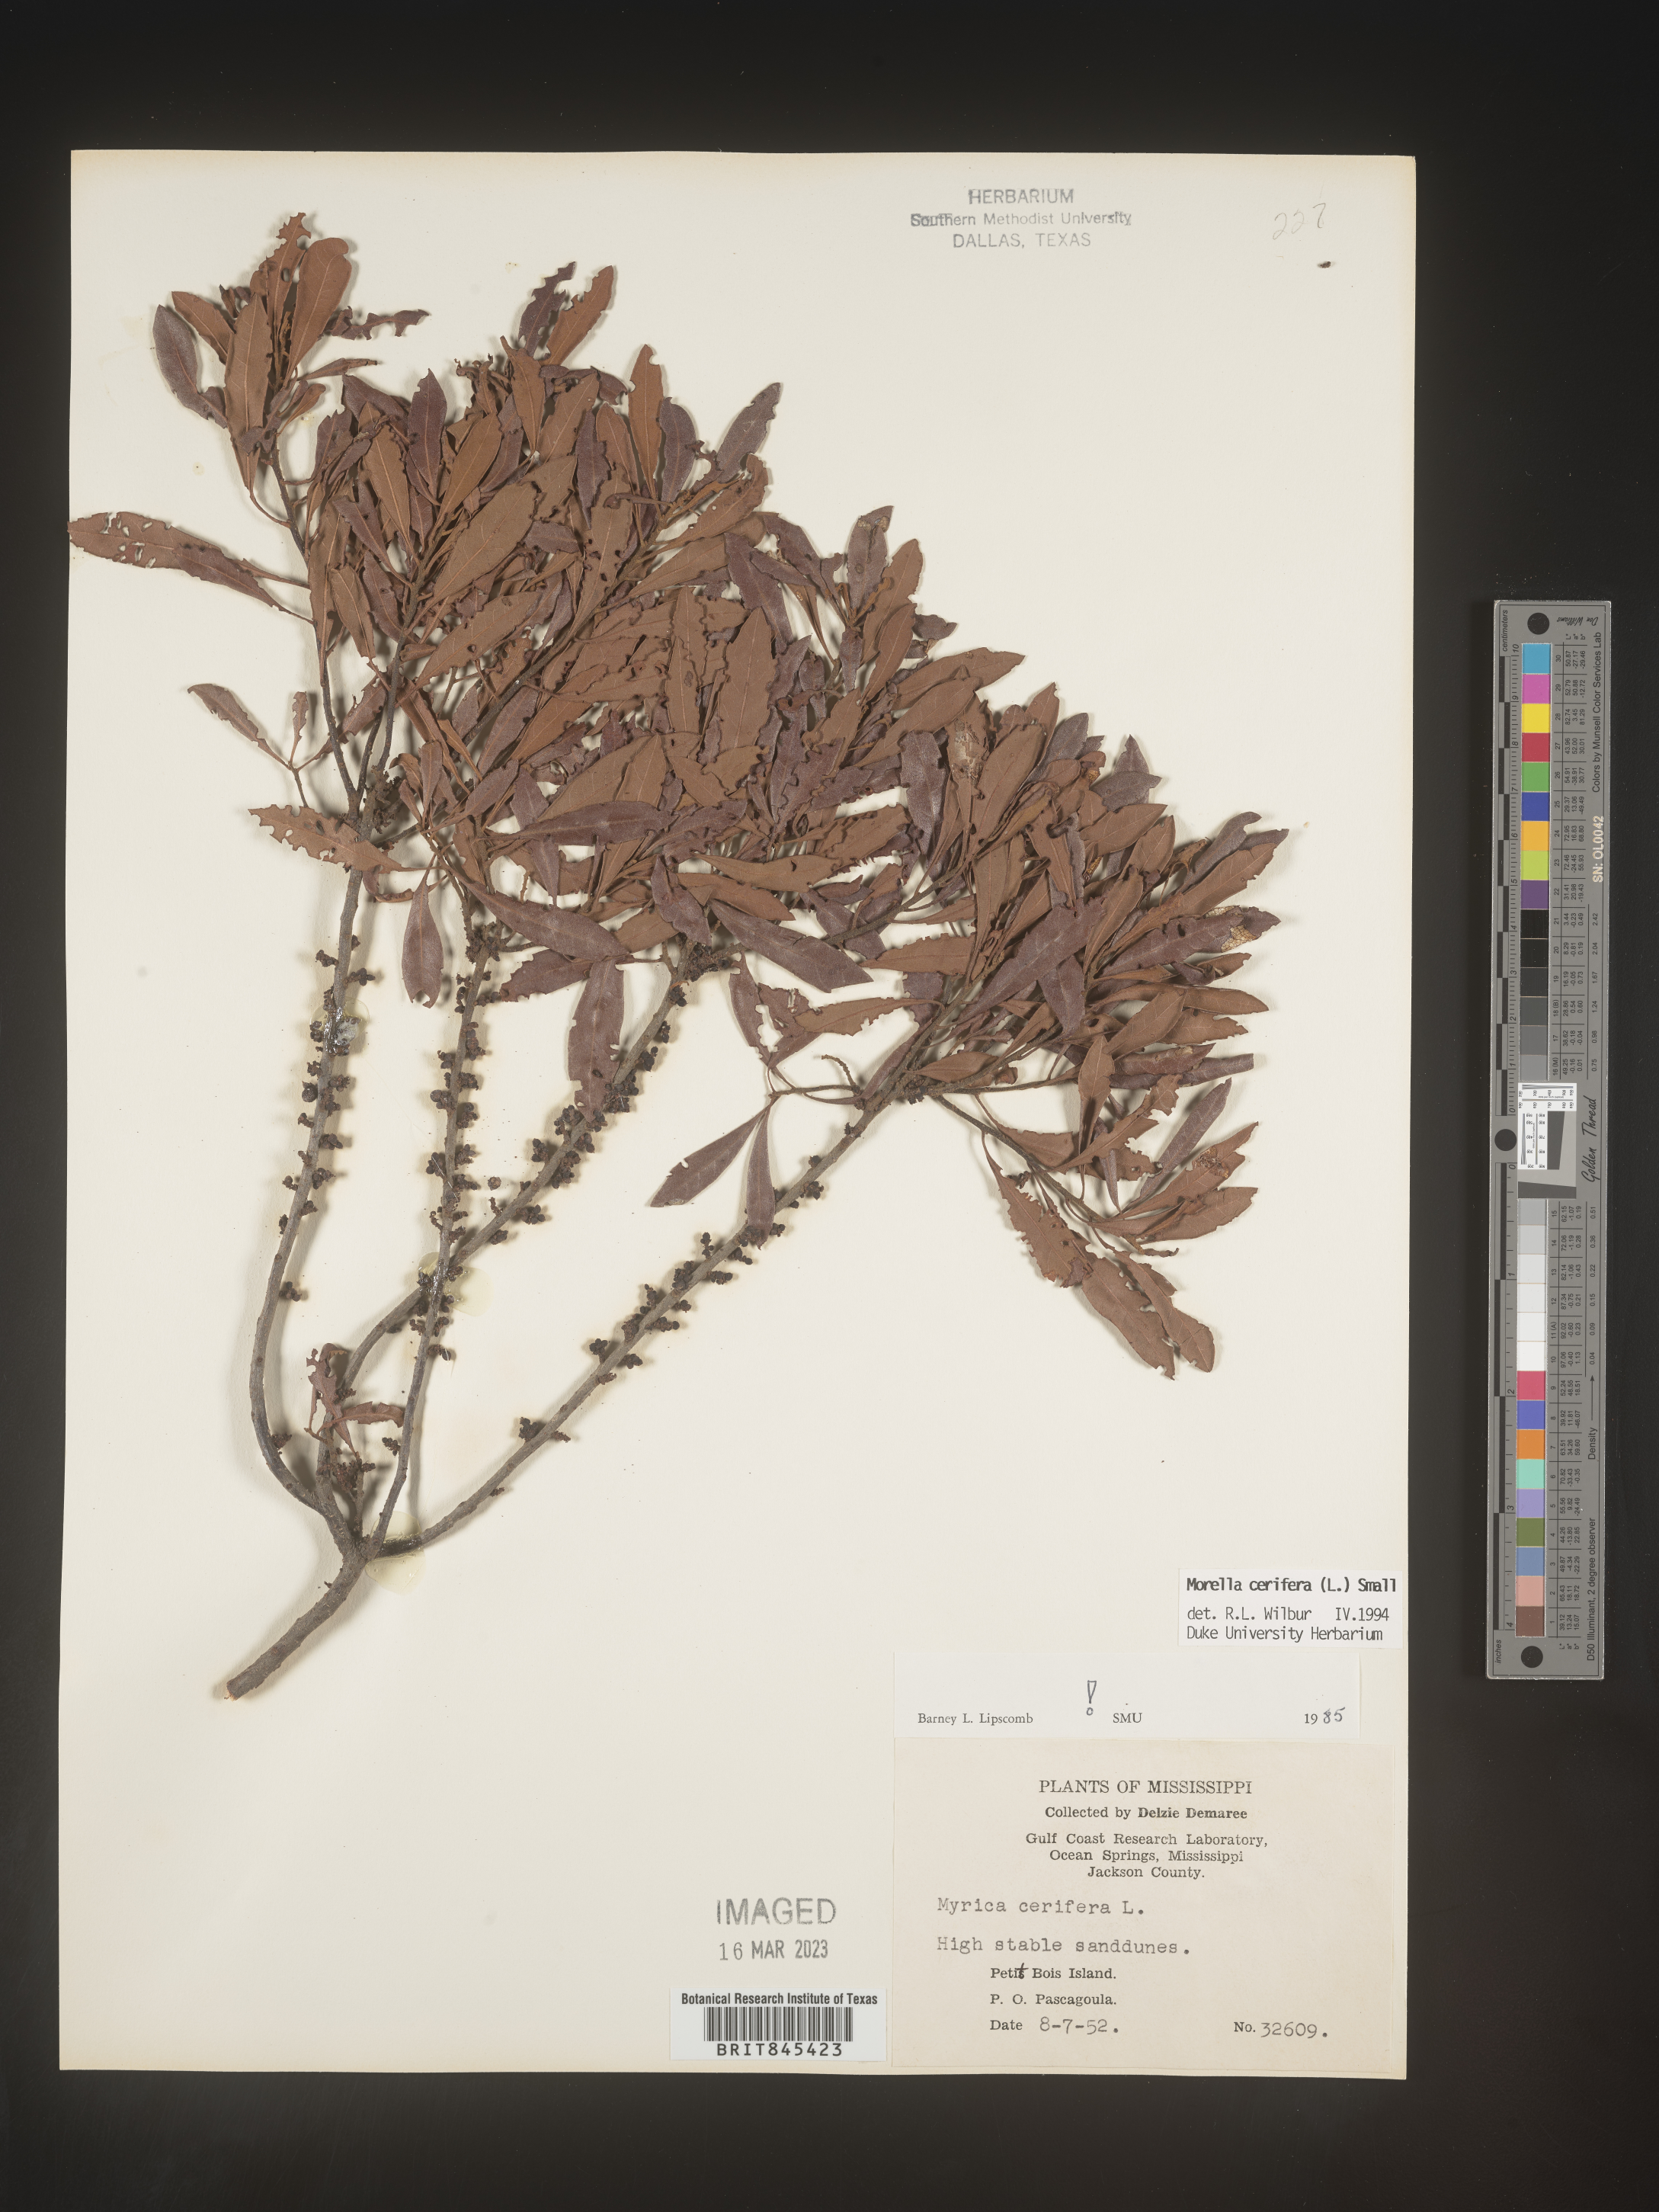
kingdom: Plantae
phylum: Tracheophyta
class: Magnoliopsida
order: Fagales
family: Myricaceae
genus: Morella
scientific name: Morella cerifera
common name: Wax myrtle
